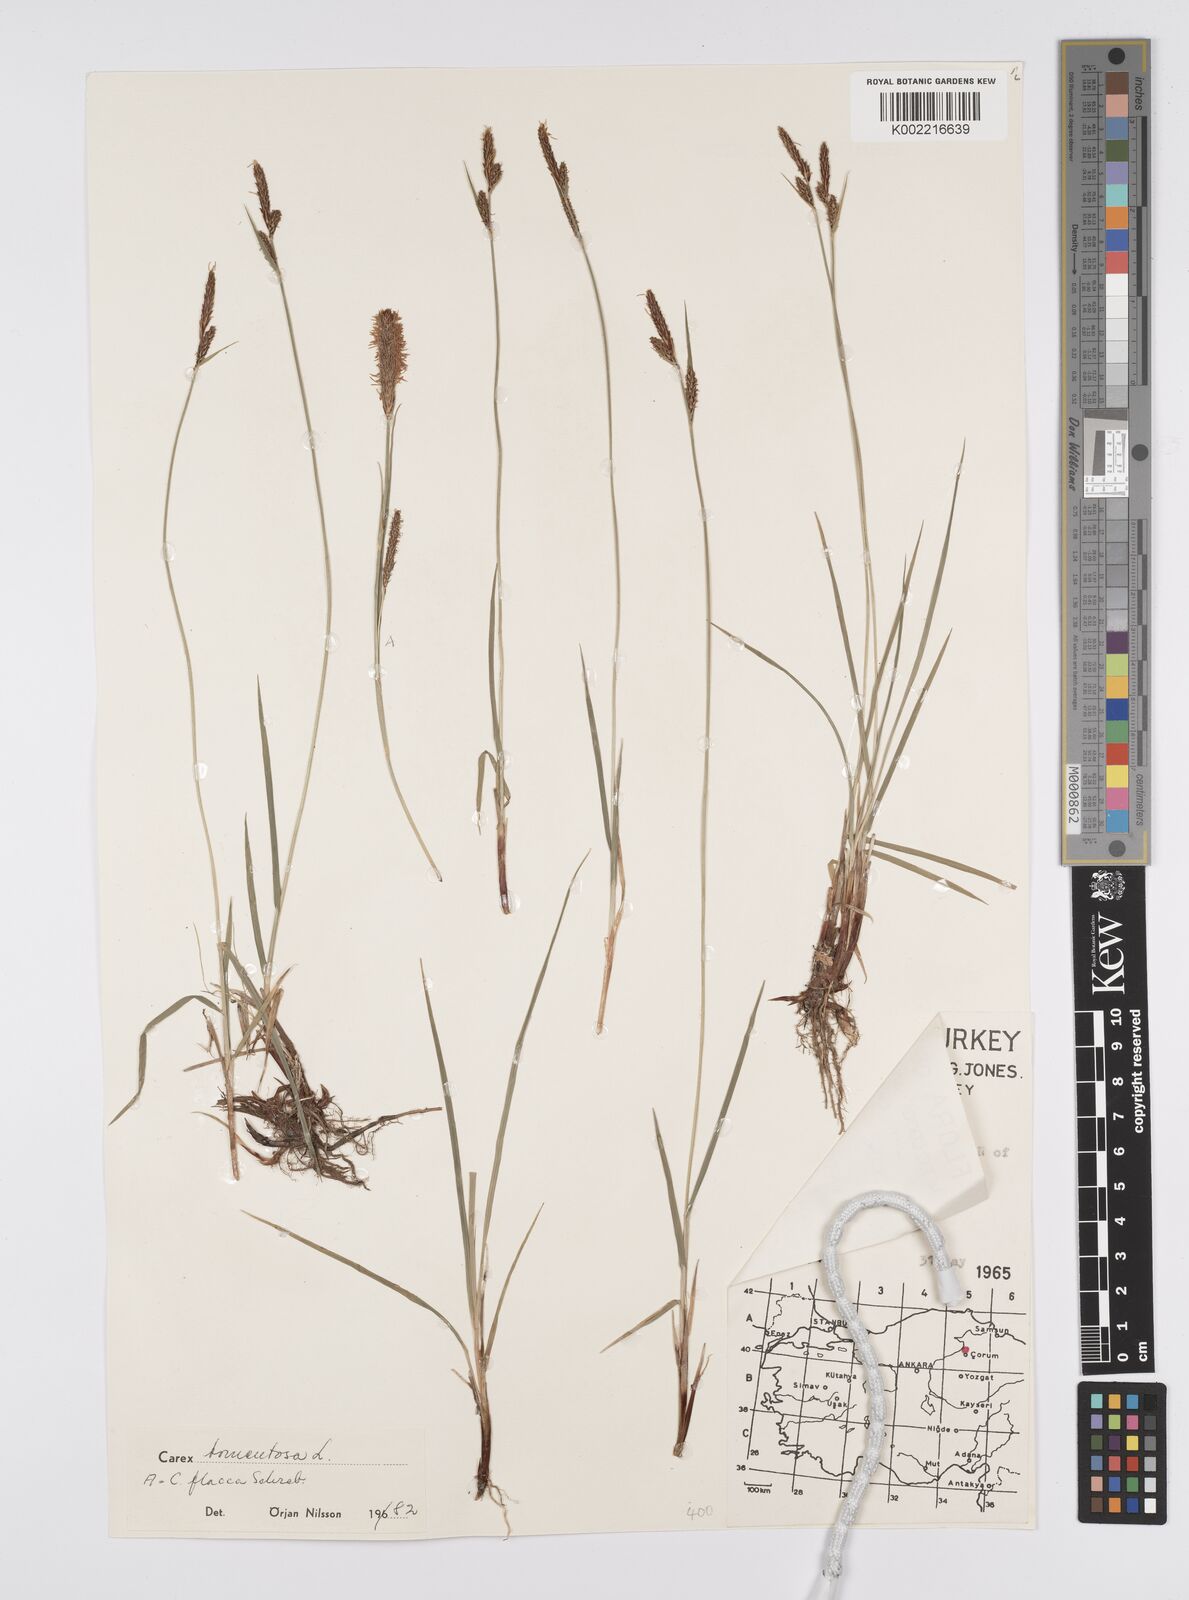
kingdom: Plantae
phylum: Tracheophyta
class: Liliopsida
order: Poales
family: Cyperaceae
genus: Carex
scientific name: Carex montana
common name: Soft-leaved sedge
